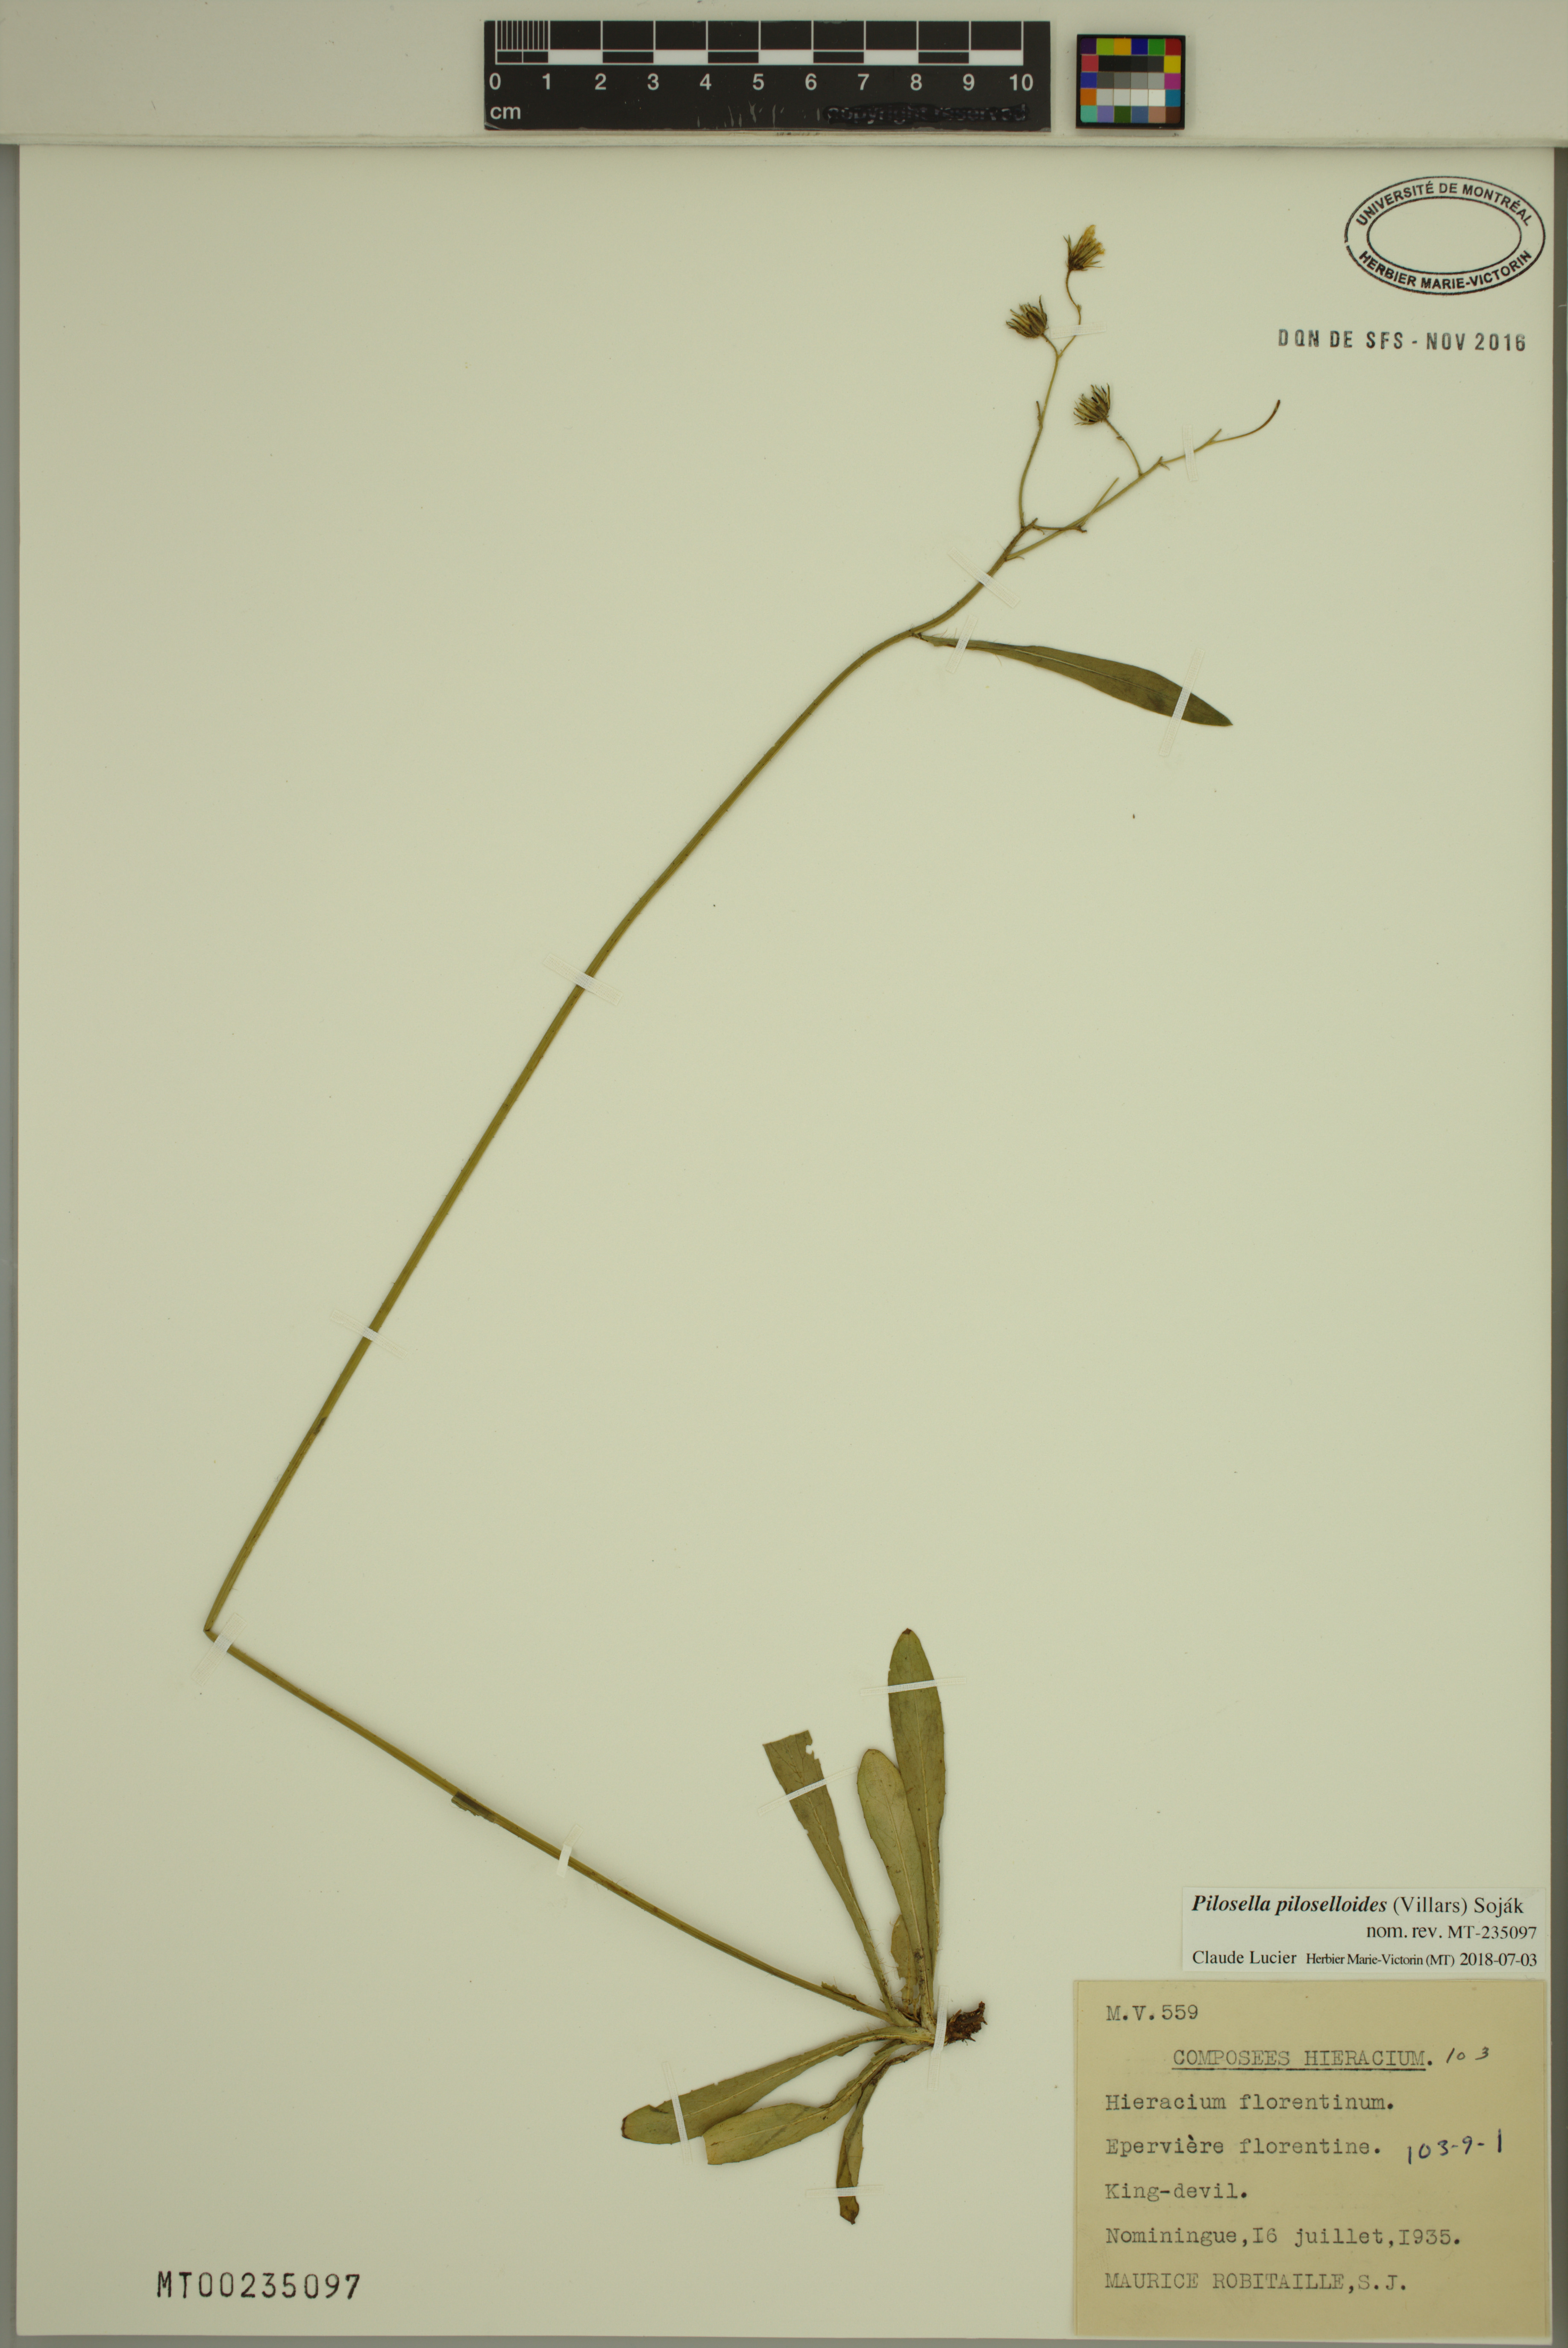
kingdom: Plantae
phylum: Tracheophyta
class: Magnoliopsida
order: Asterales
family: Asteraceae
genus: Pilosella
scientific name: Pilosella piloselloides
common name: Glaucous king-devil
